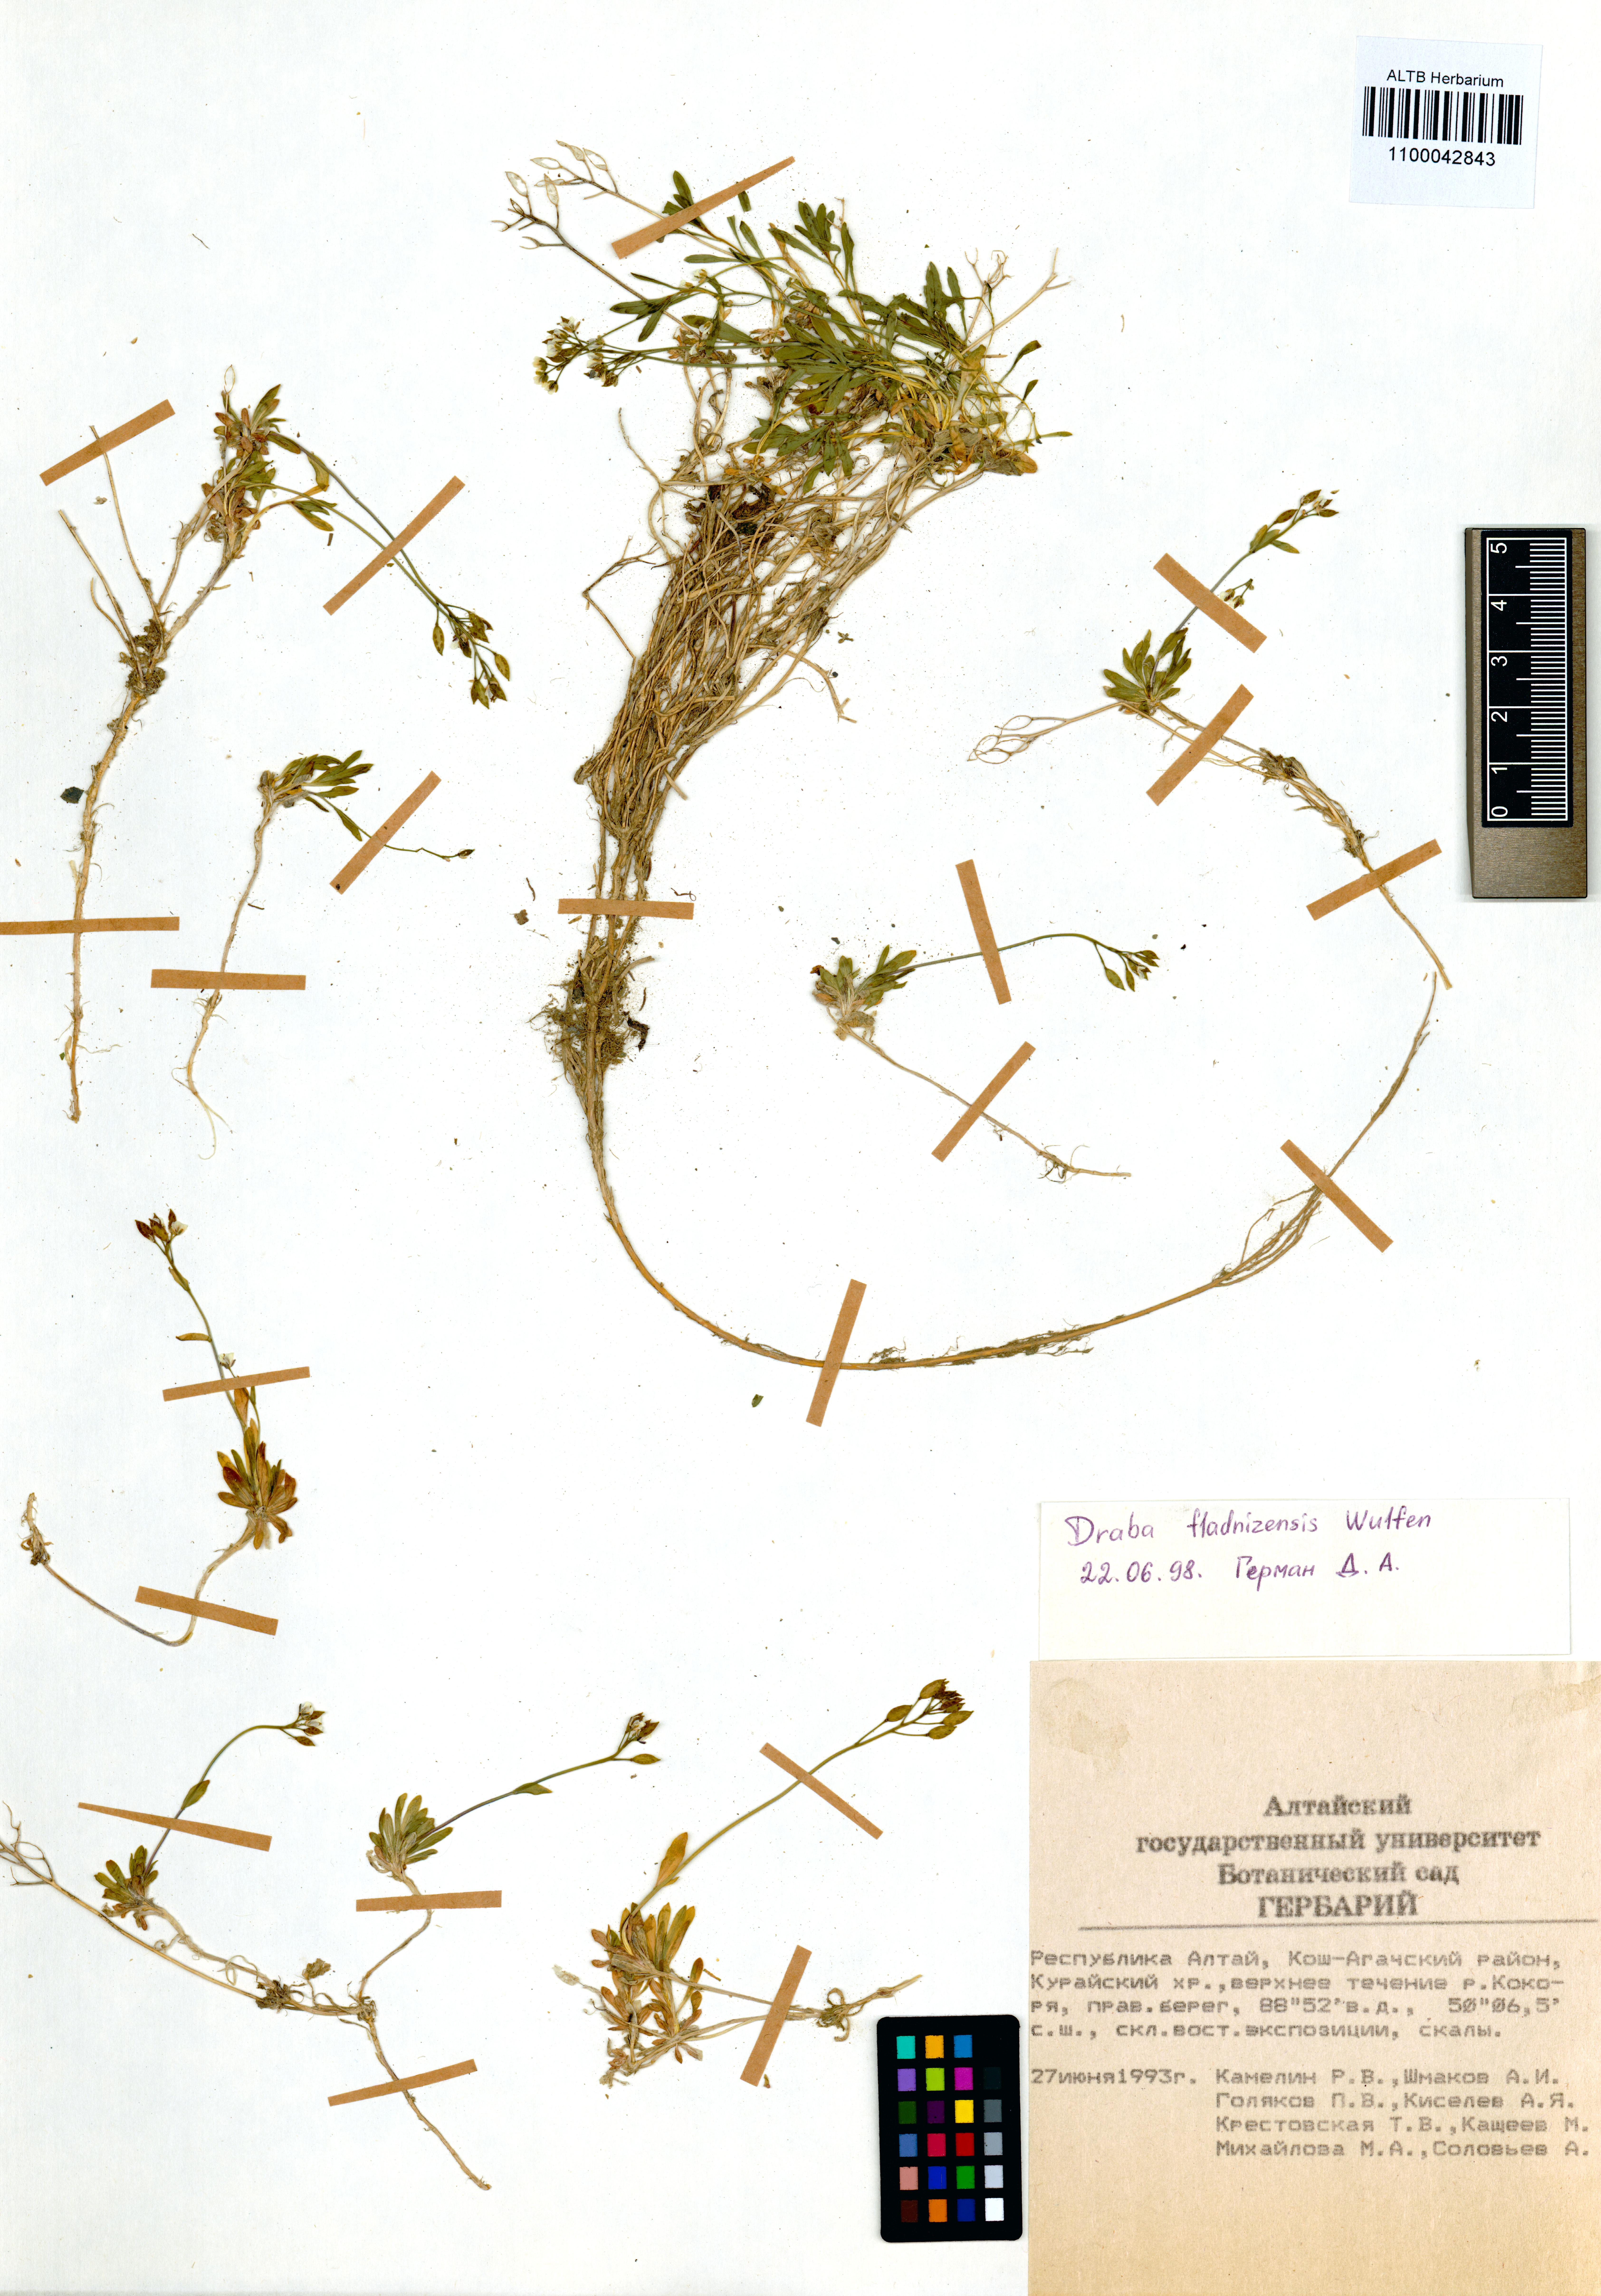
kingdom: Plantae
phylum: Tracheophyta
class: Magnoliopsida
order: Brassicales
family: Brassicaceae
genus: Draba
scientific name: Draba fladnizensis
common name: Austrian draba
